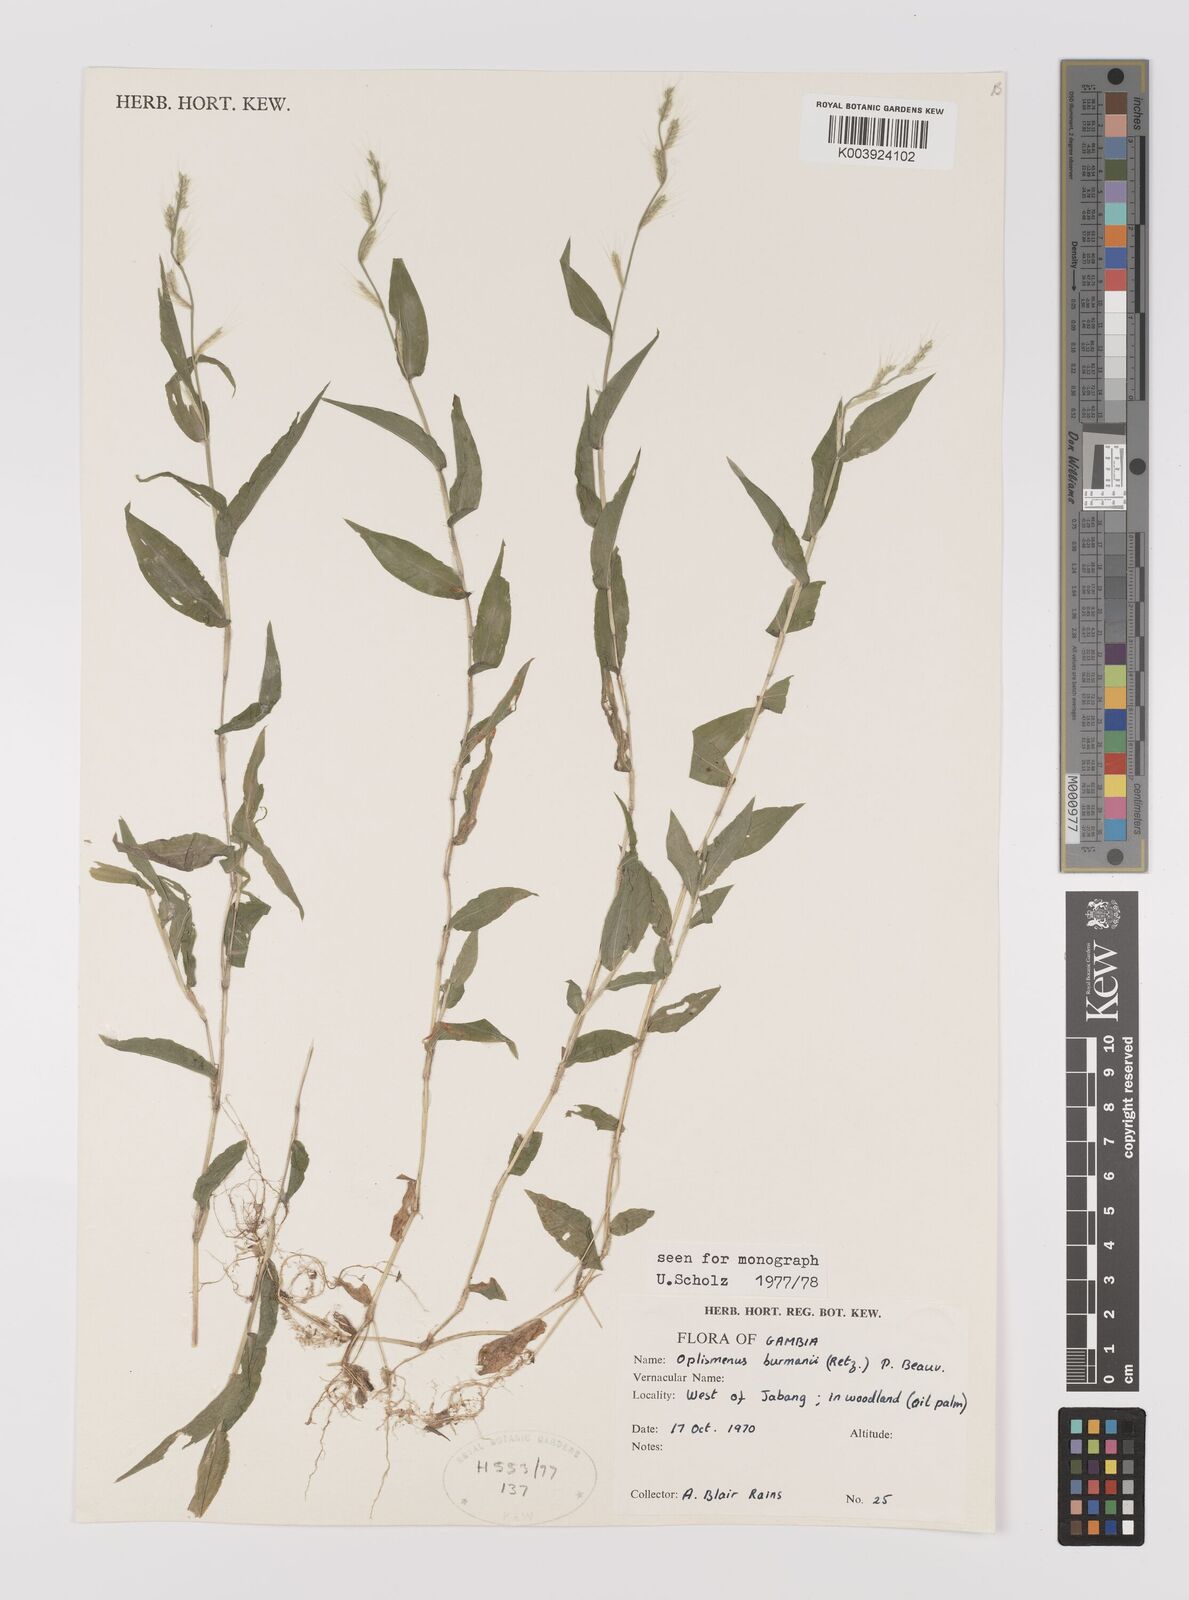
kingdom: Plantae
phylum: Tracheophyta
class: Liliopsida
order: Poales
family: Poaceae
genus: Oplismenus
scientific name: Oplismenus burmanni
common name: Burmann's basketgrass
